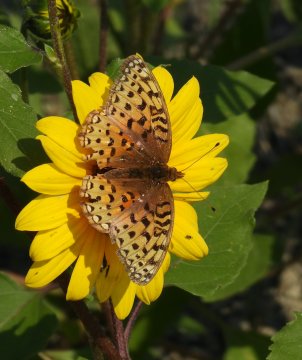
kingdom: Animalia
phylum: Arthropoda
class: Insecta
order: Lepidoptera
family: Nymphalidae
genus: Speyeria
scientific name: Speyeria callippe
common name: Callippe Fritillary
